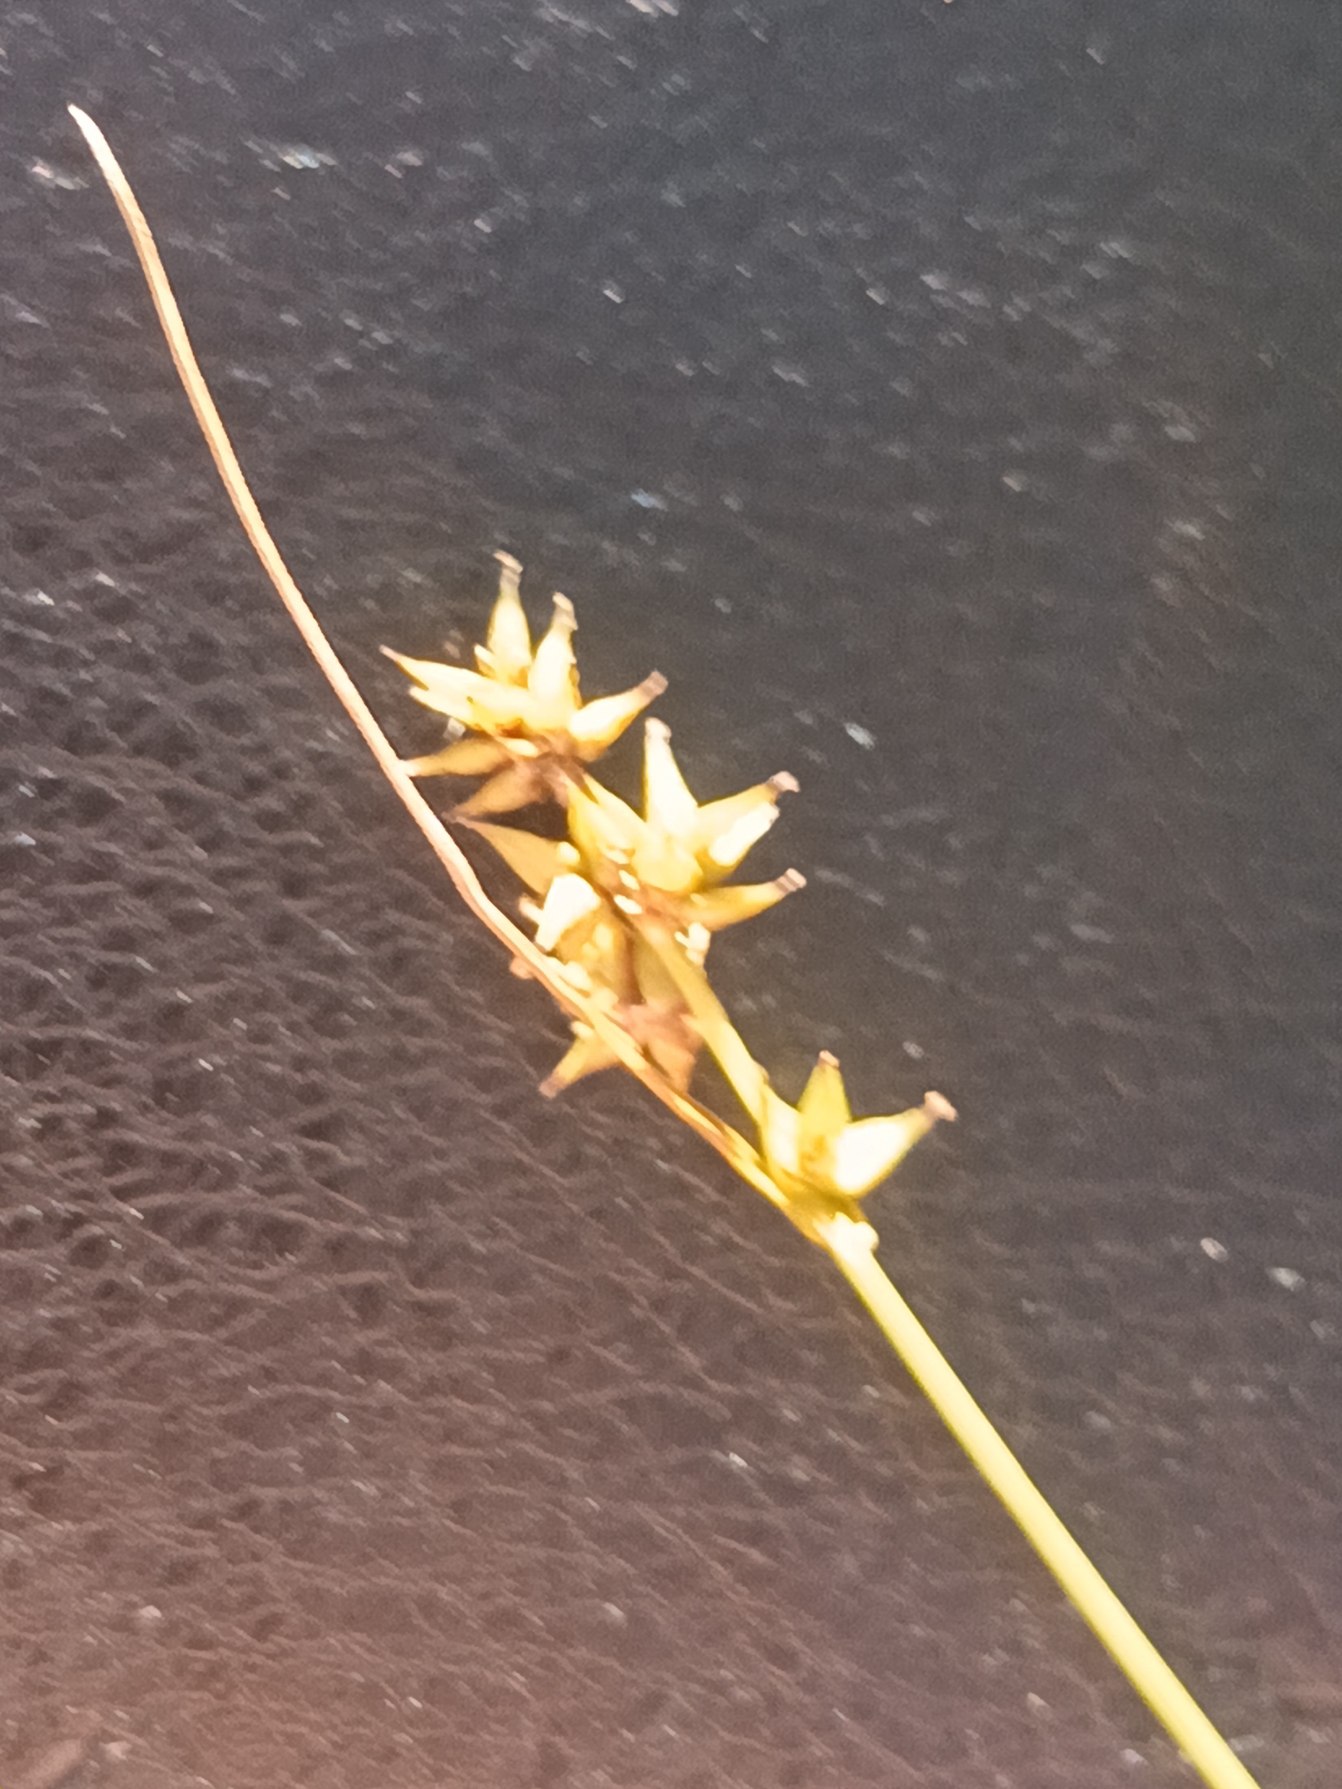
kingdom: Plantae
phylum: Tracheophyta
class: Liliopsida
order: Poales
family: Cyperaceae
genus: Carex
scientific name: Carex echinata
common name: Stjerne-star
